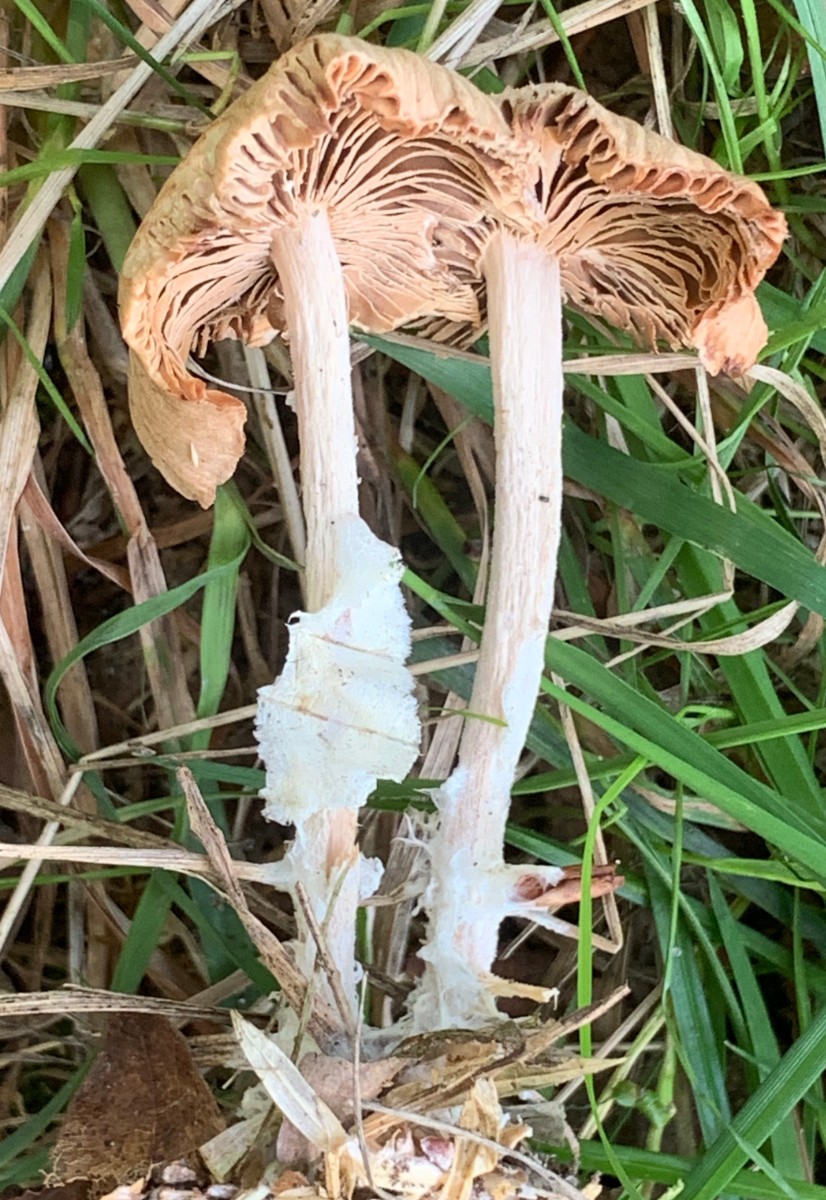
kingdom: Fungi
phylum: Basidiomycota
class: Agaricomycetes
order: Agaricales
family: Omphalotaceae
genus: Collybiopsis
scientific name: Collybiopsis peronata
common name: bestøvlet fladhat
